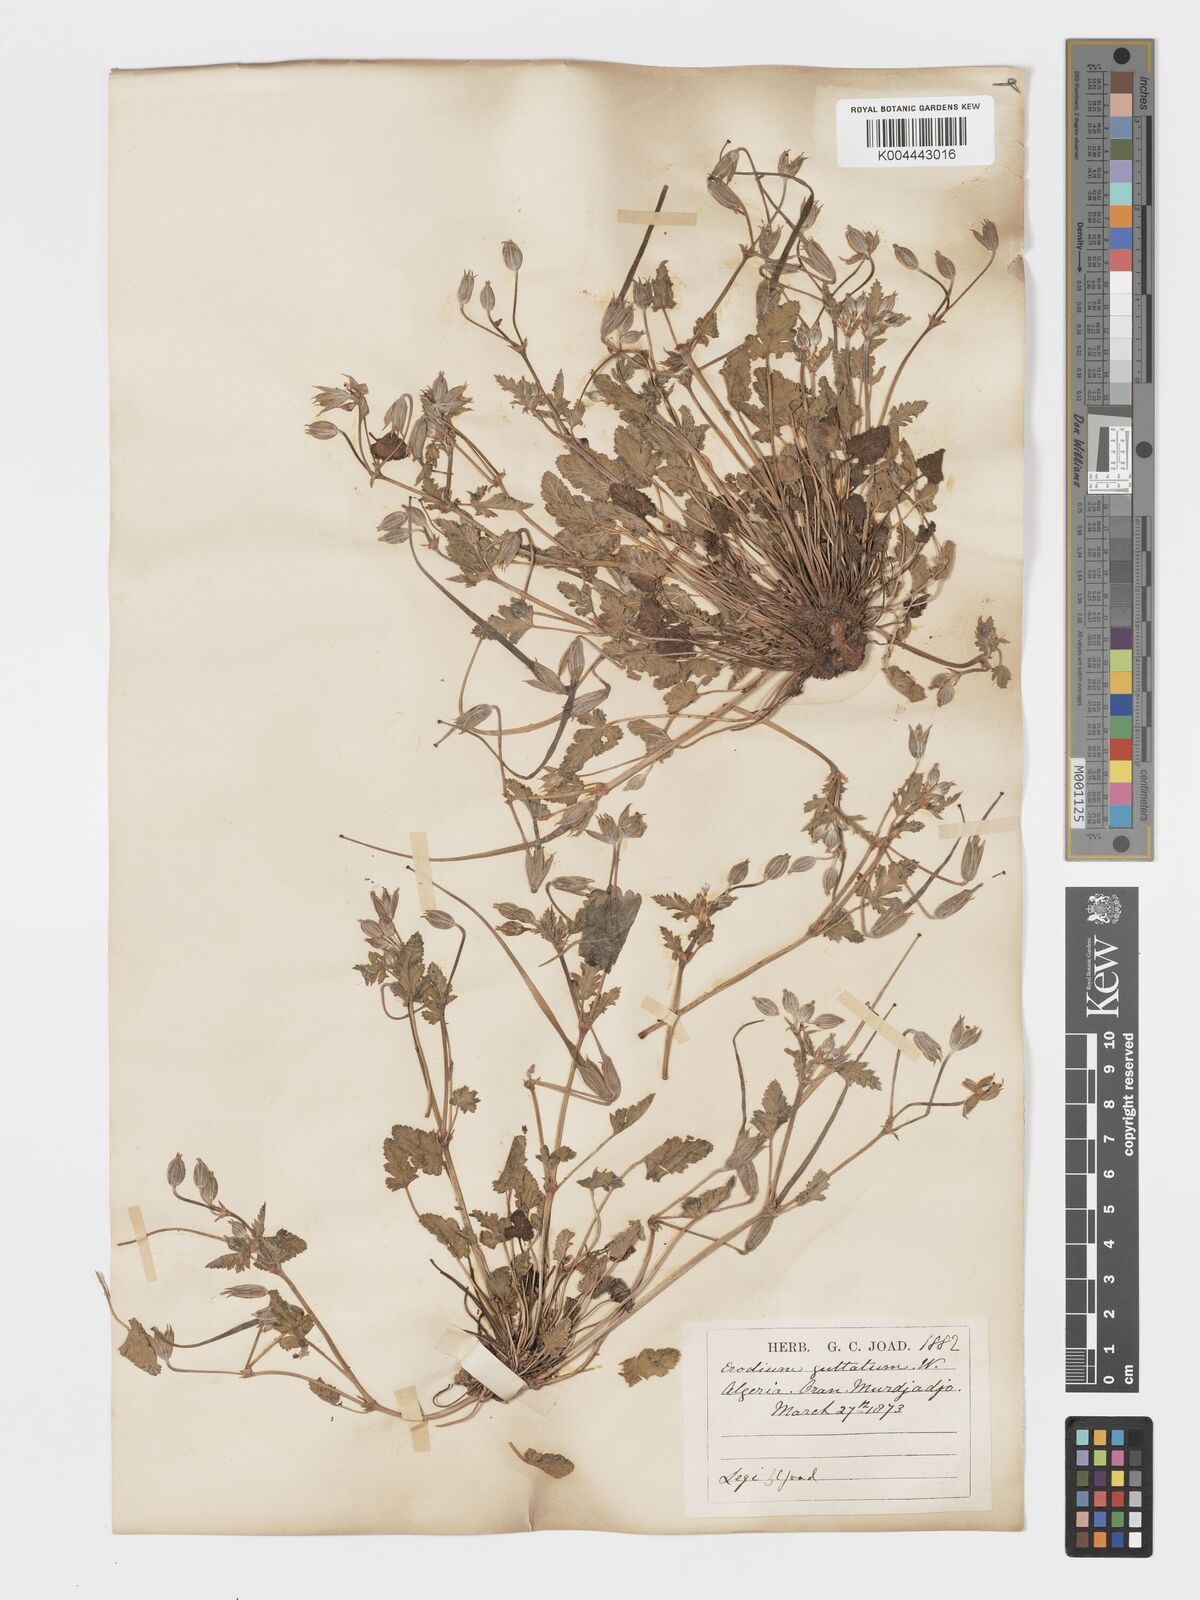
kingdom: Plantae
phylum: Tracheophyta
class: Magnoliopsida
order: Geraniales
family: Geraniaceae
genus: Erodium
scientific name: Erodium guttatum
